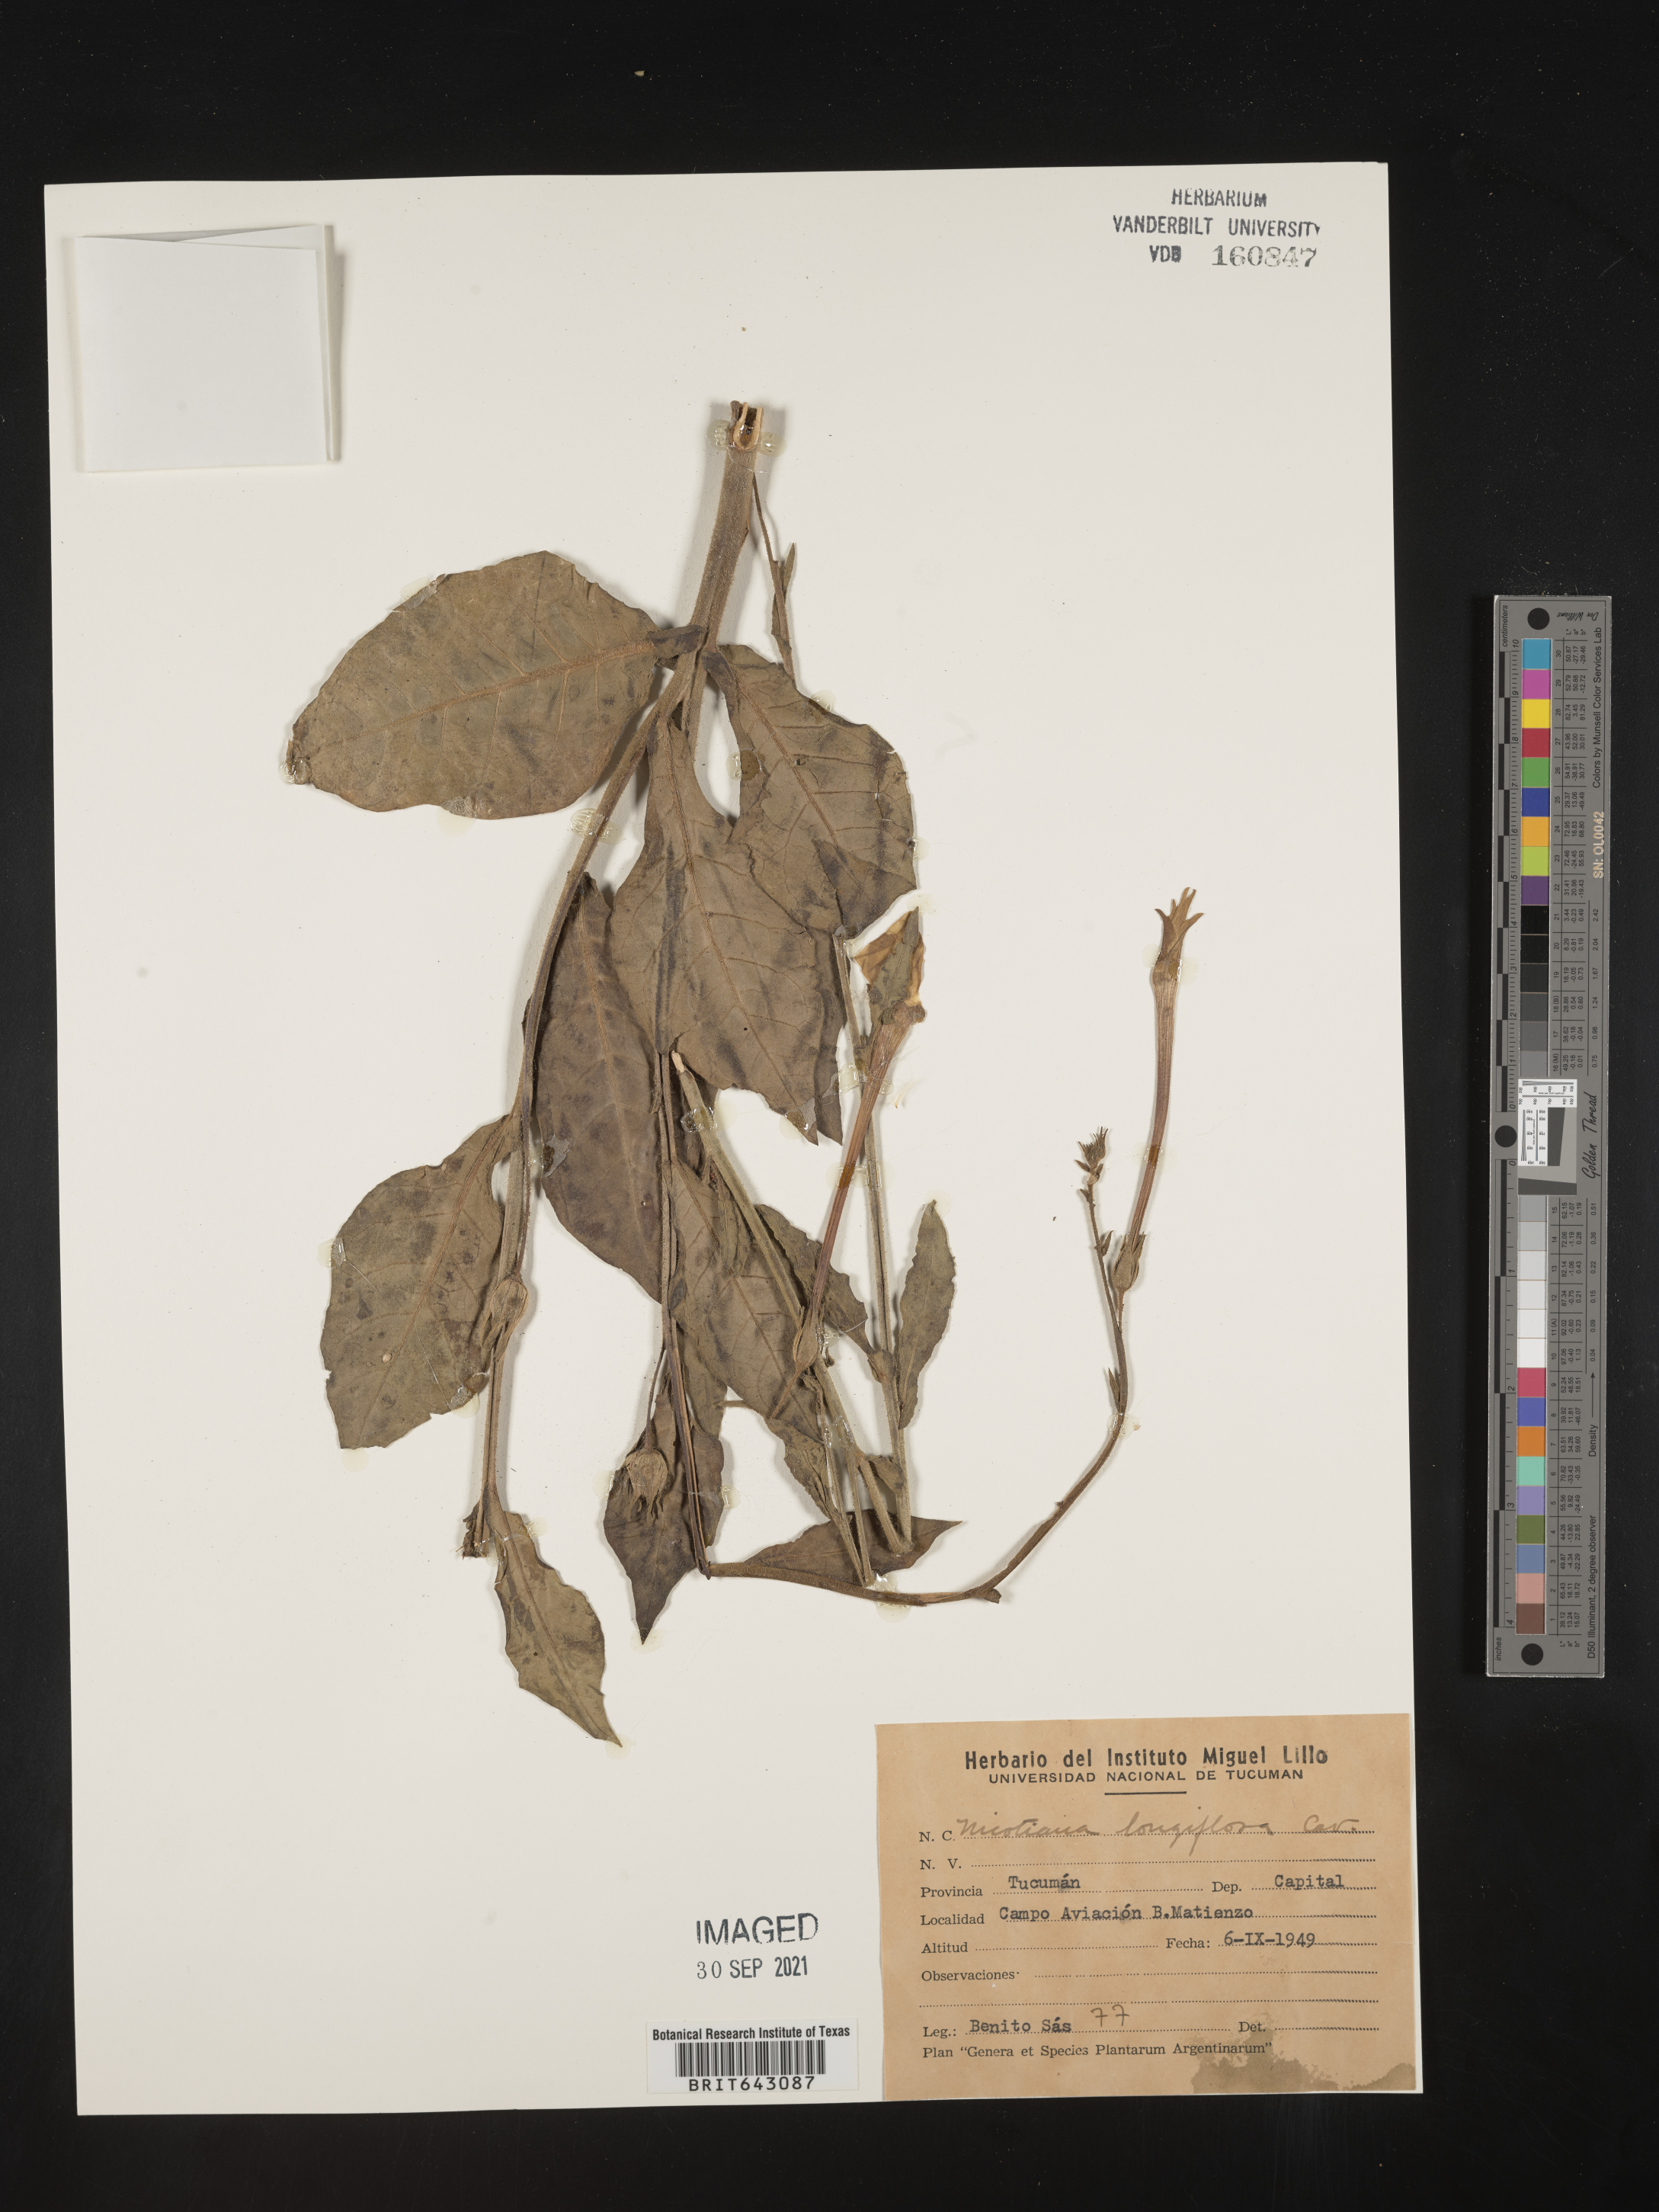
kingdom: Plantae
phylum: Tracheophyta
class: Magnoliopsida
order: Solanales
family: Solanaceae
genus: Nicotiana
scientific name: Nicotiana
